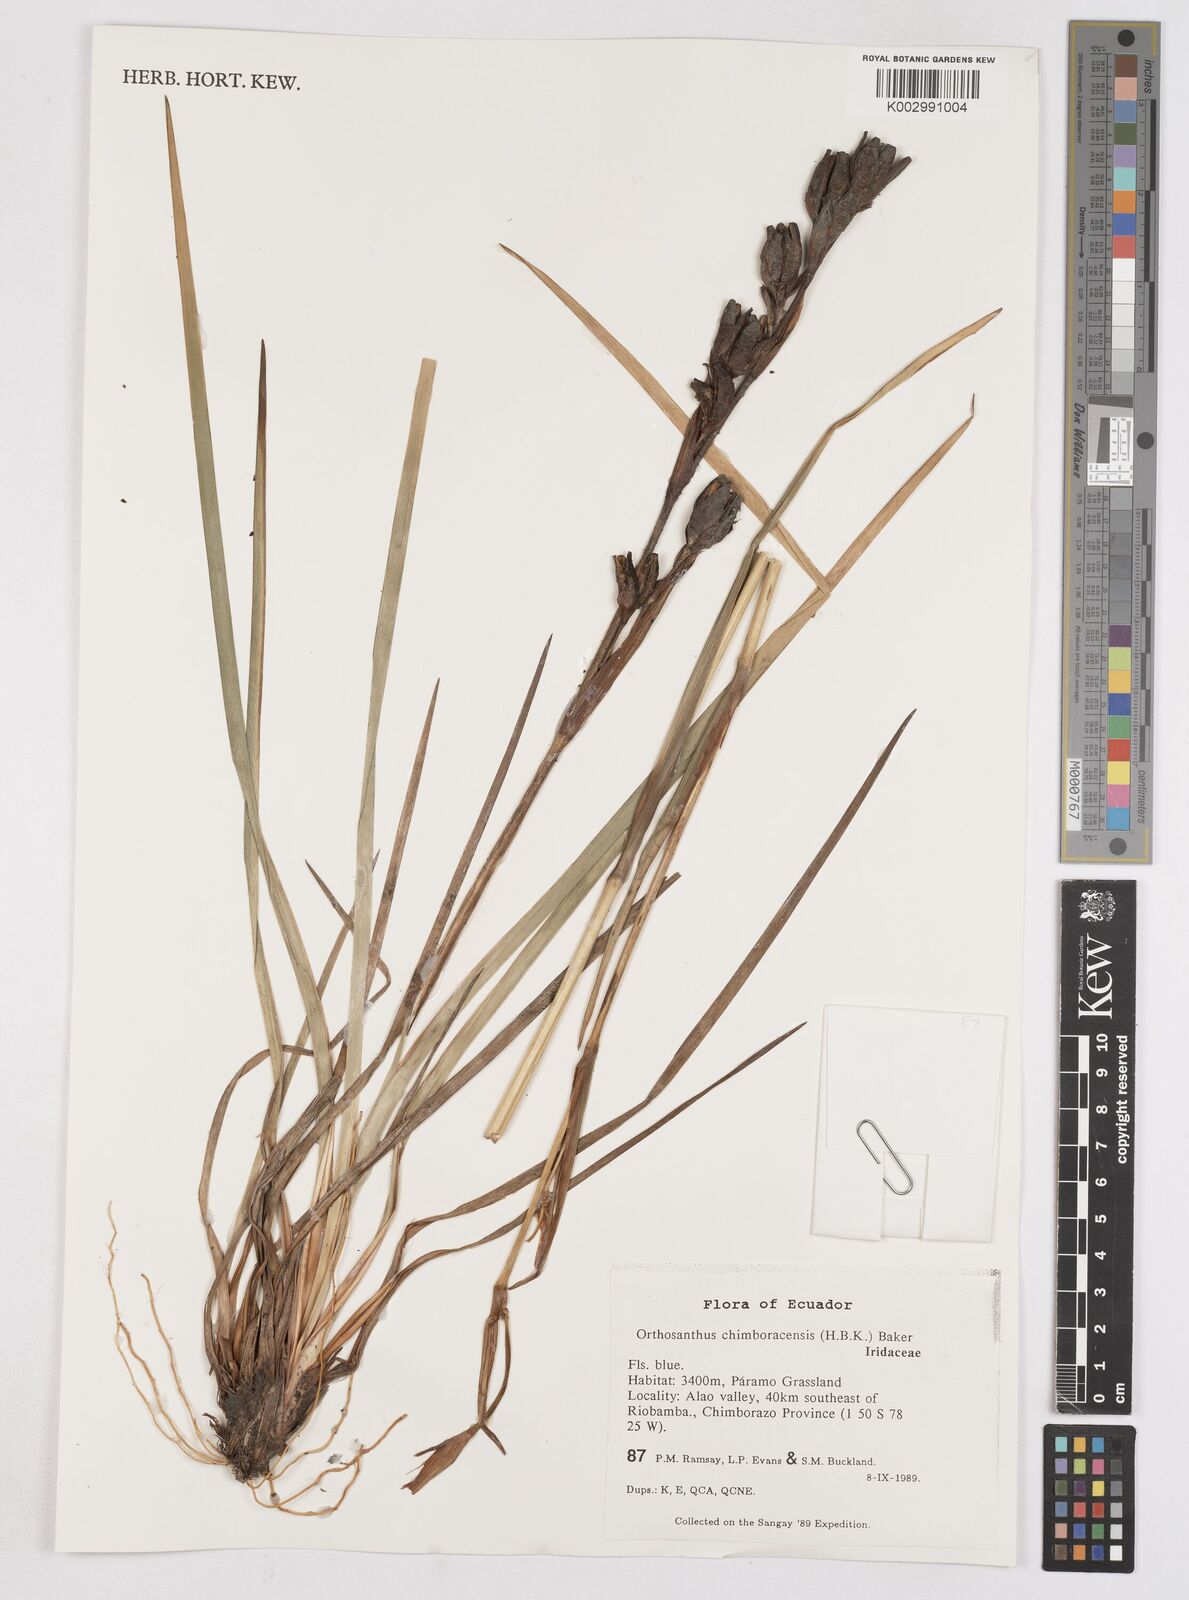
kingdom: Plantae
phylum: Tracheophyta
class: Liliopsida
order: Asparagales
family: Iridaceae
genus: Orthrosanthus
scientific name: Orthrosanthus chimboracensis
